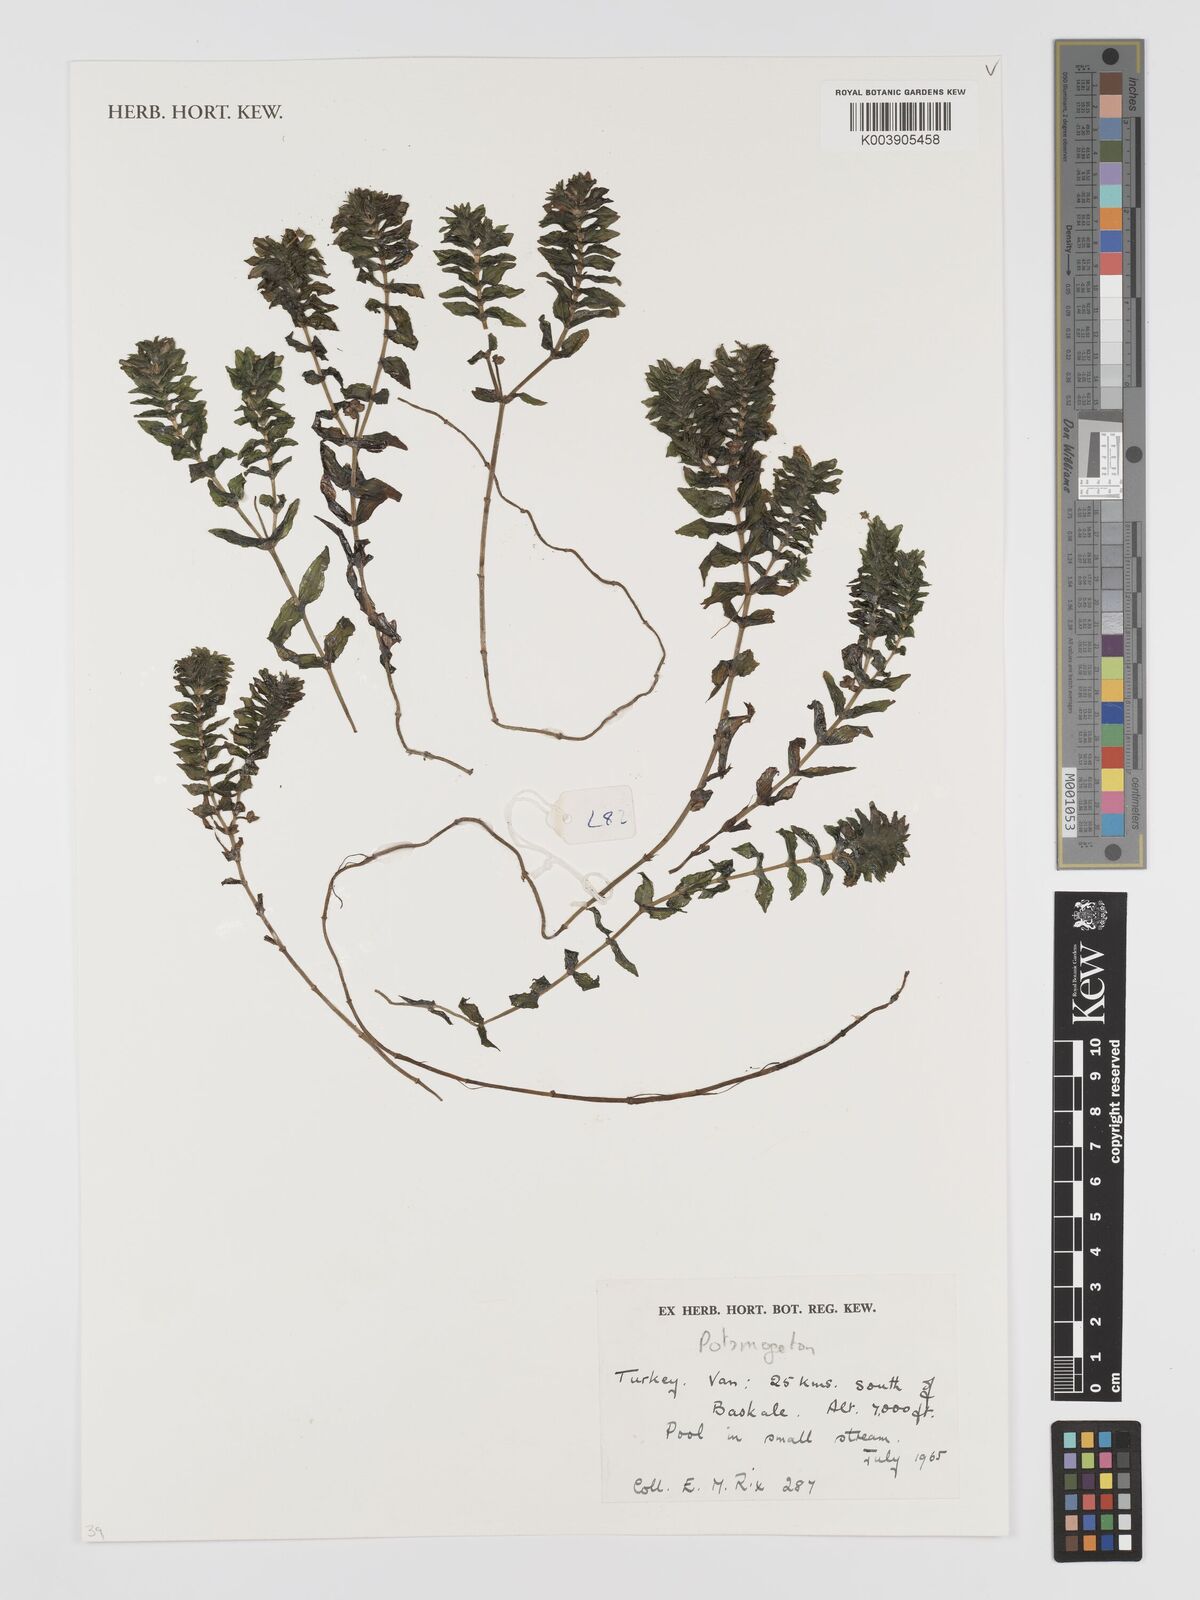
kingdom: Plantae
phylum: Tracheophyta
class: Liliopsida
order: Alismatales
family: Potamogetonaceae
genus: Potamogeton
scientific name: Potamogeton
